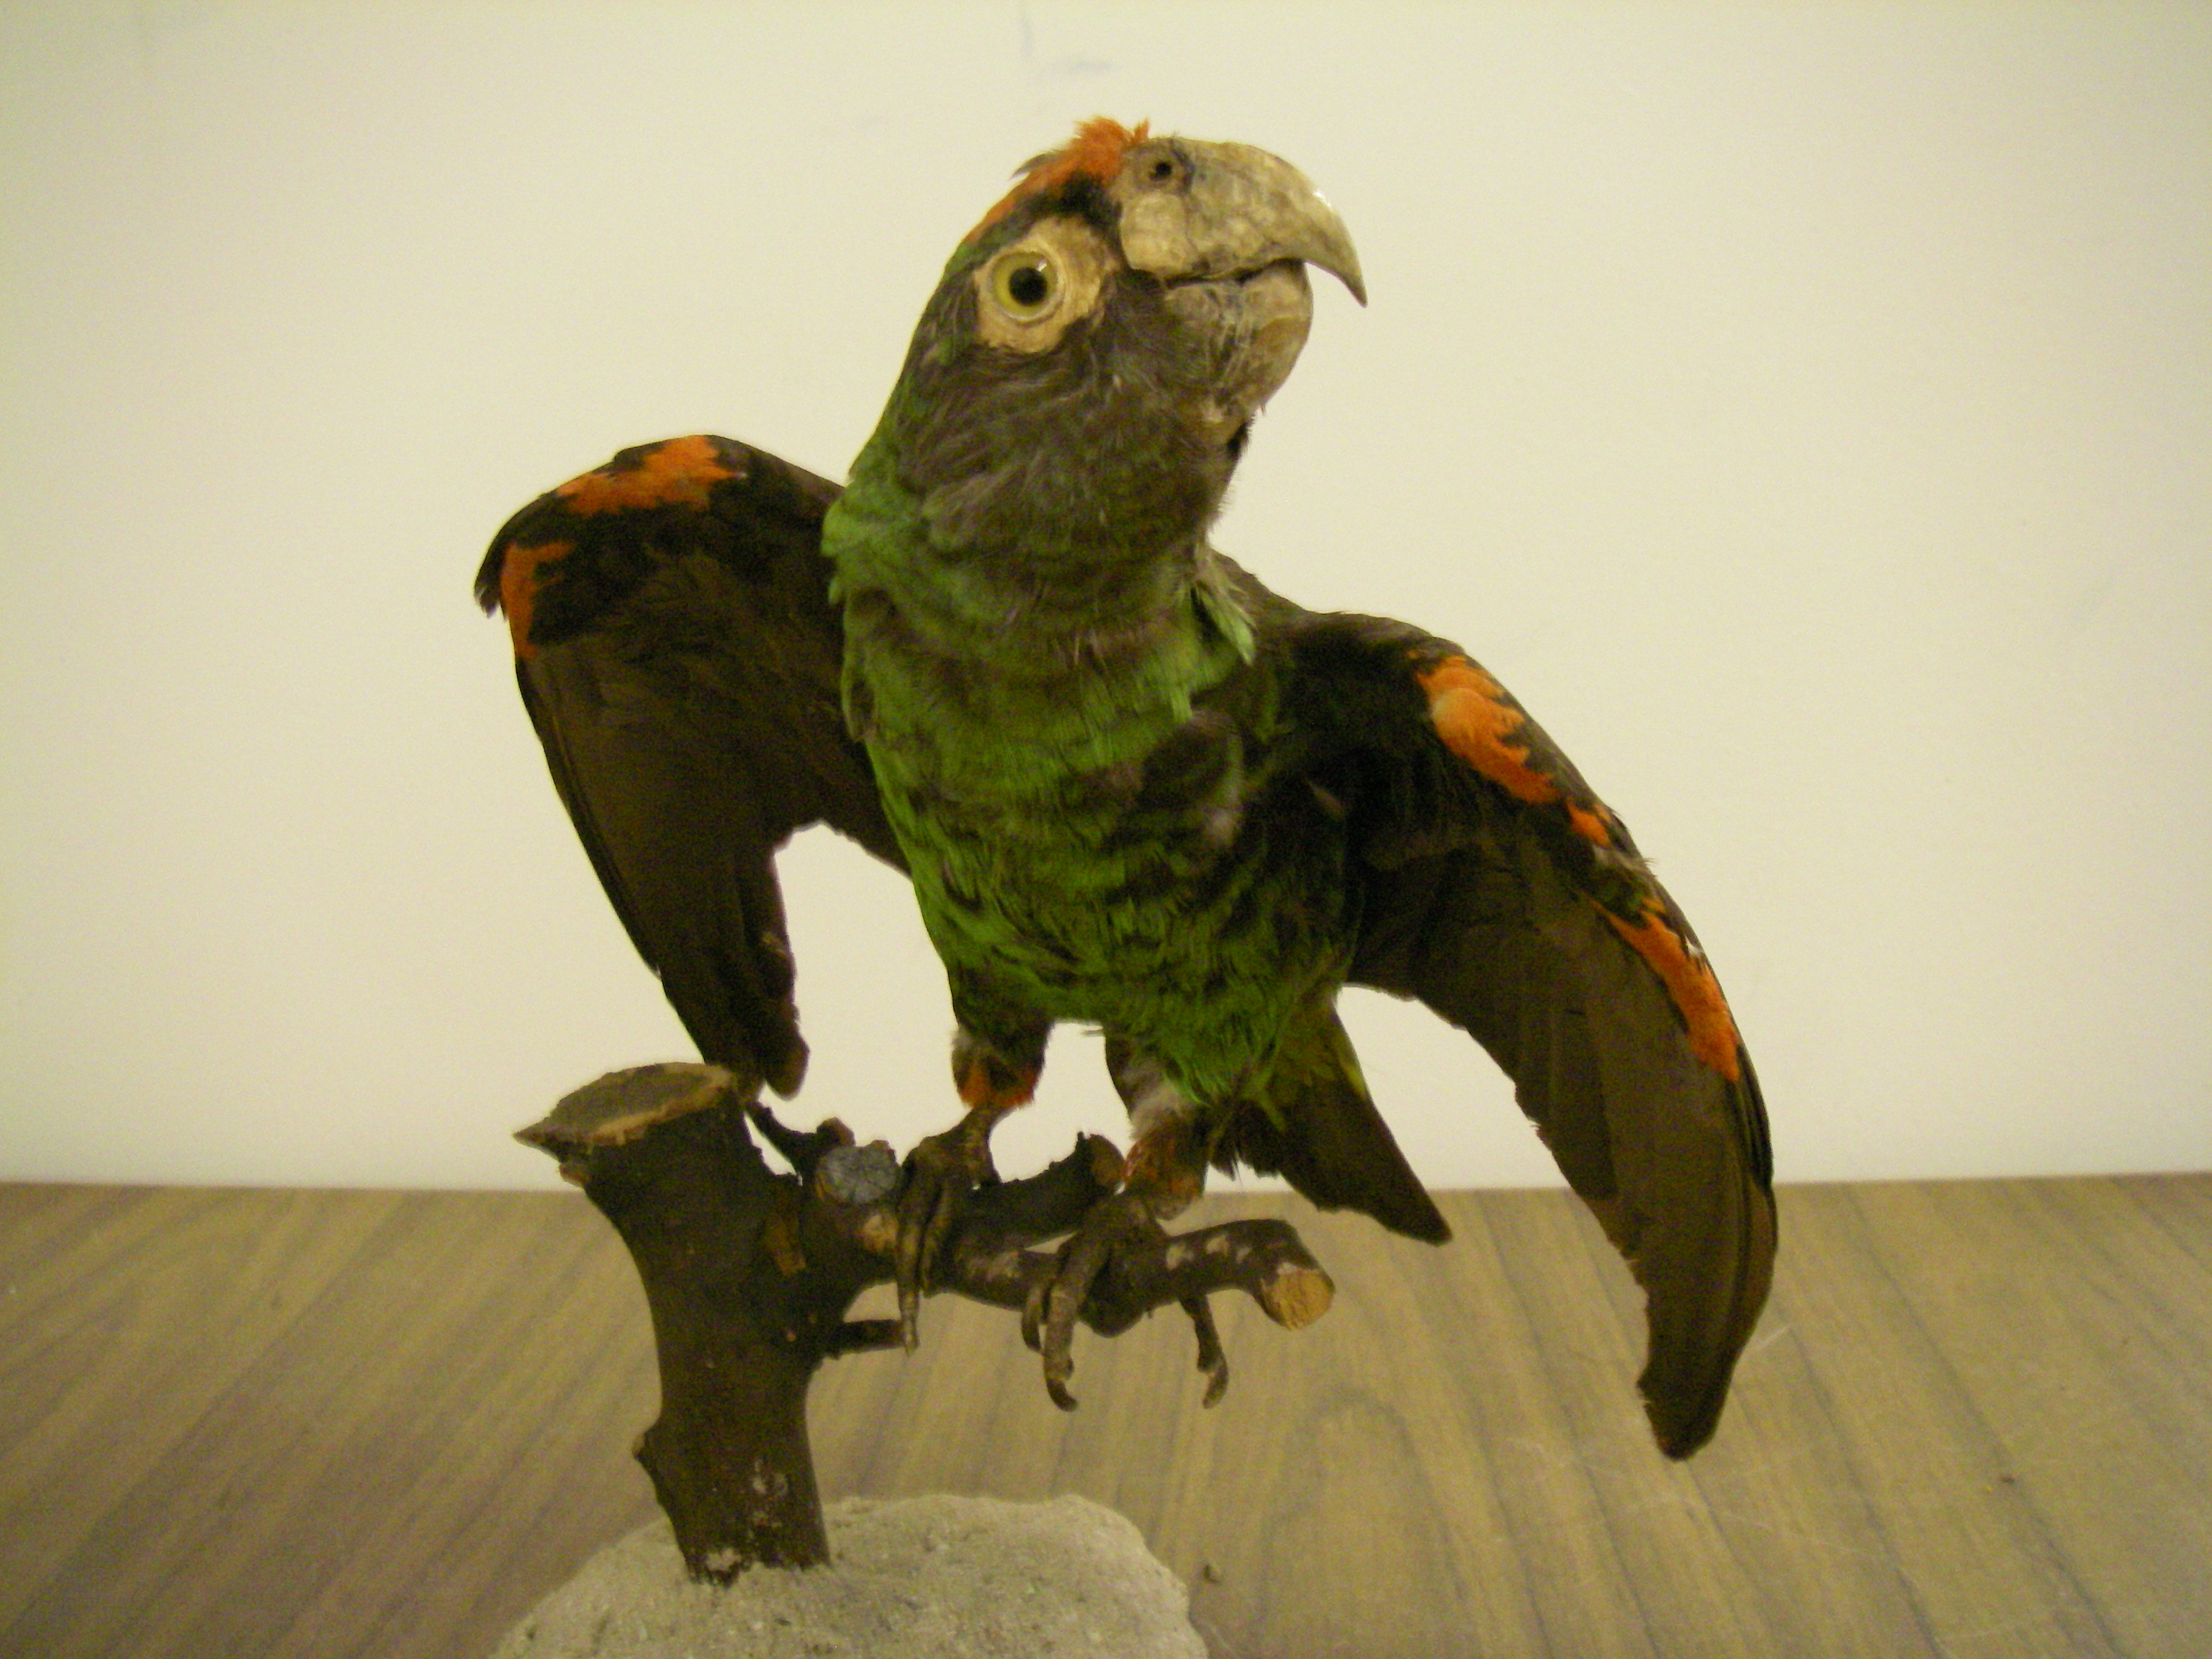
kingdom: Animalia
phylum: Chordata
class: Aves
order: Psittaciformes
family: Psittacidae
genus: Poicephalus
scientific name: Poicephalus gulielmi
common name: Red-fronted parrot
